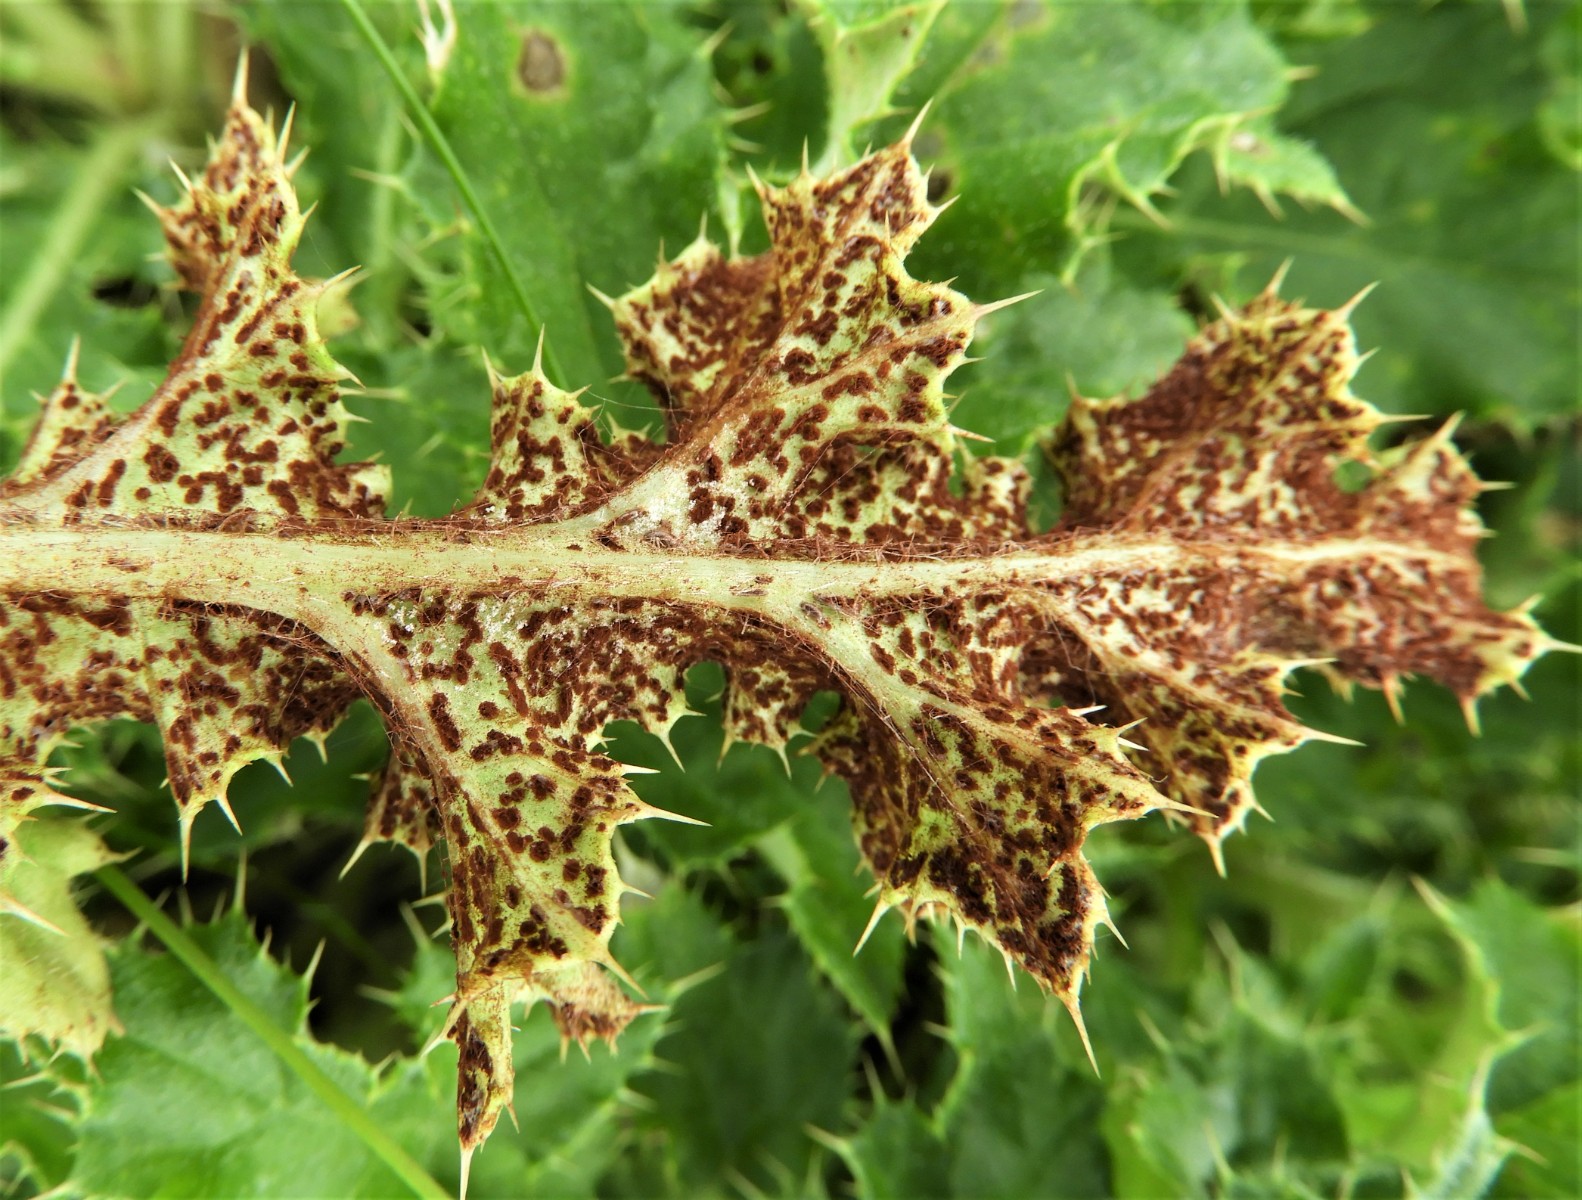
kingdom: Fungi
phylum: Basidiomycota
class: Pucciniomycetes
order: Pucciniales
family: Pucciniaceae
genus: Puccinia
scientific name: Puccinia suaveolens
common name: tidsel-tvecellerust
